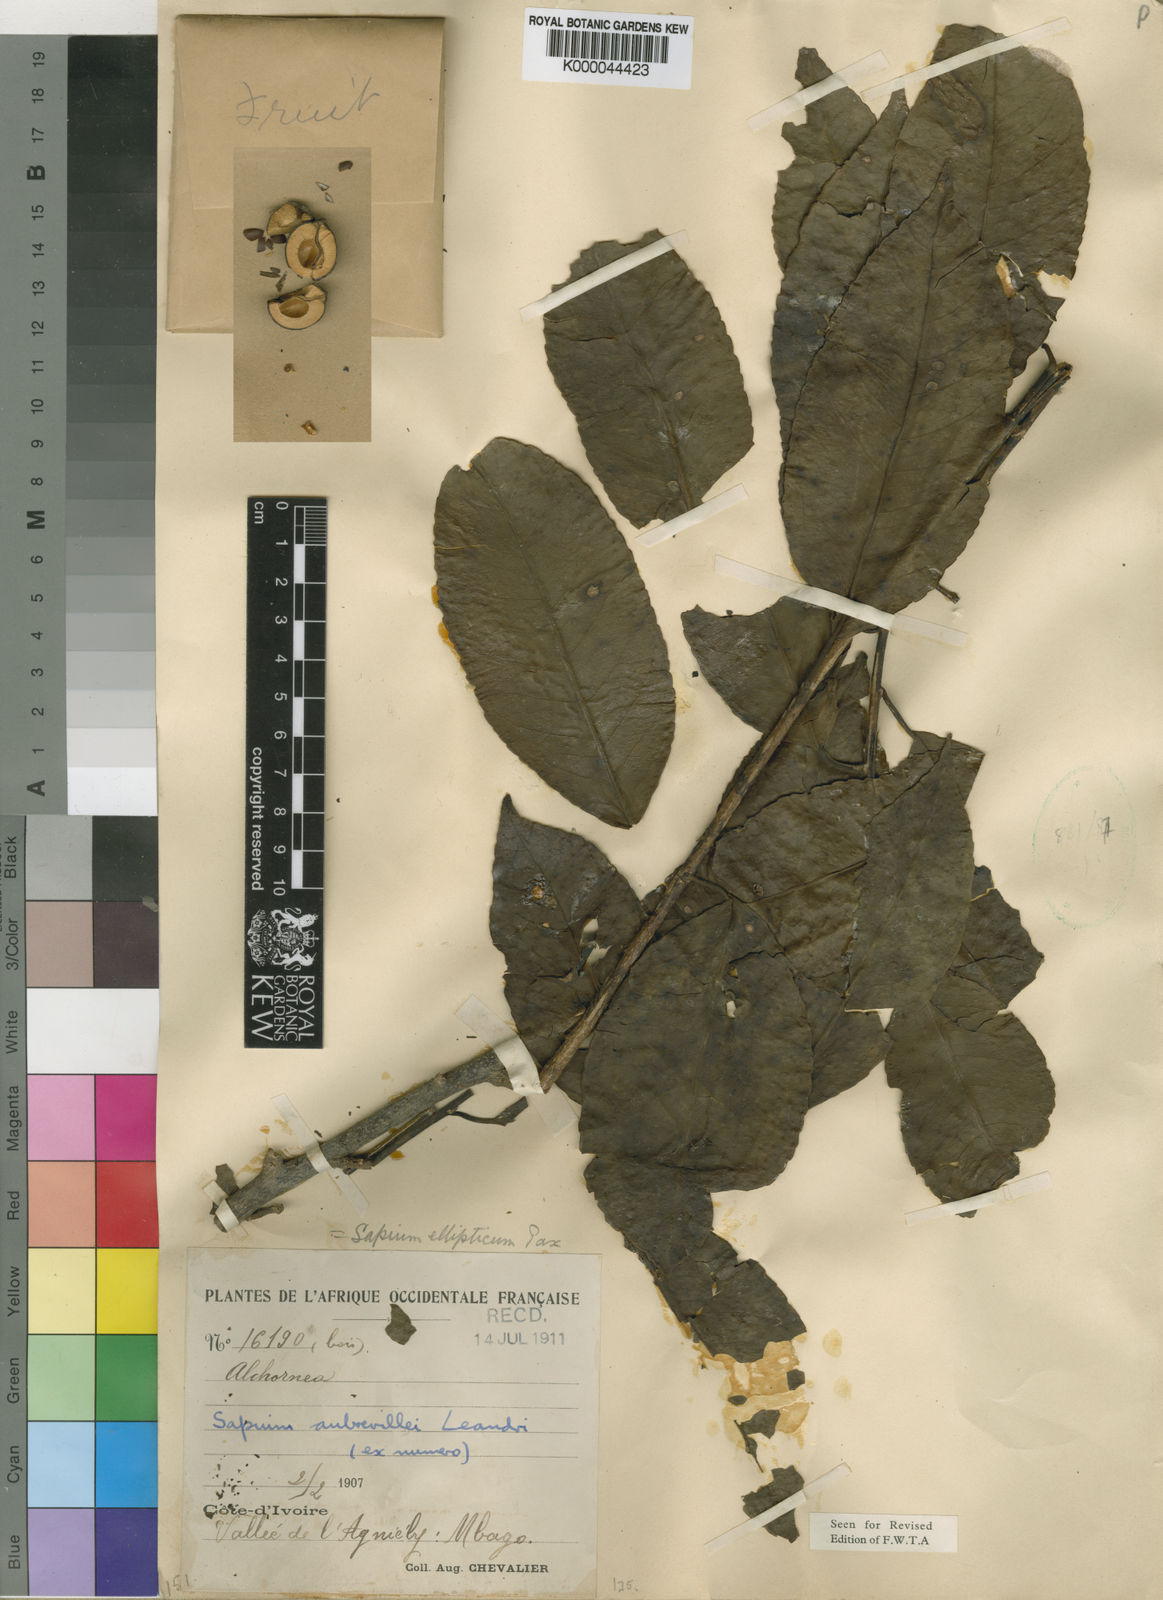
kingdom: Plantae
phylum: Tracheophyta
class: Magnoliopsida
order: Malpighiales
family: Euphorbiaceae
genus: Shirakiopsis
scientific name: Shirakiopsis aubrevillei
